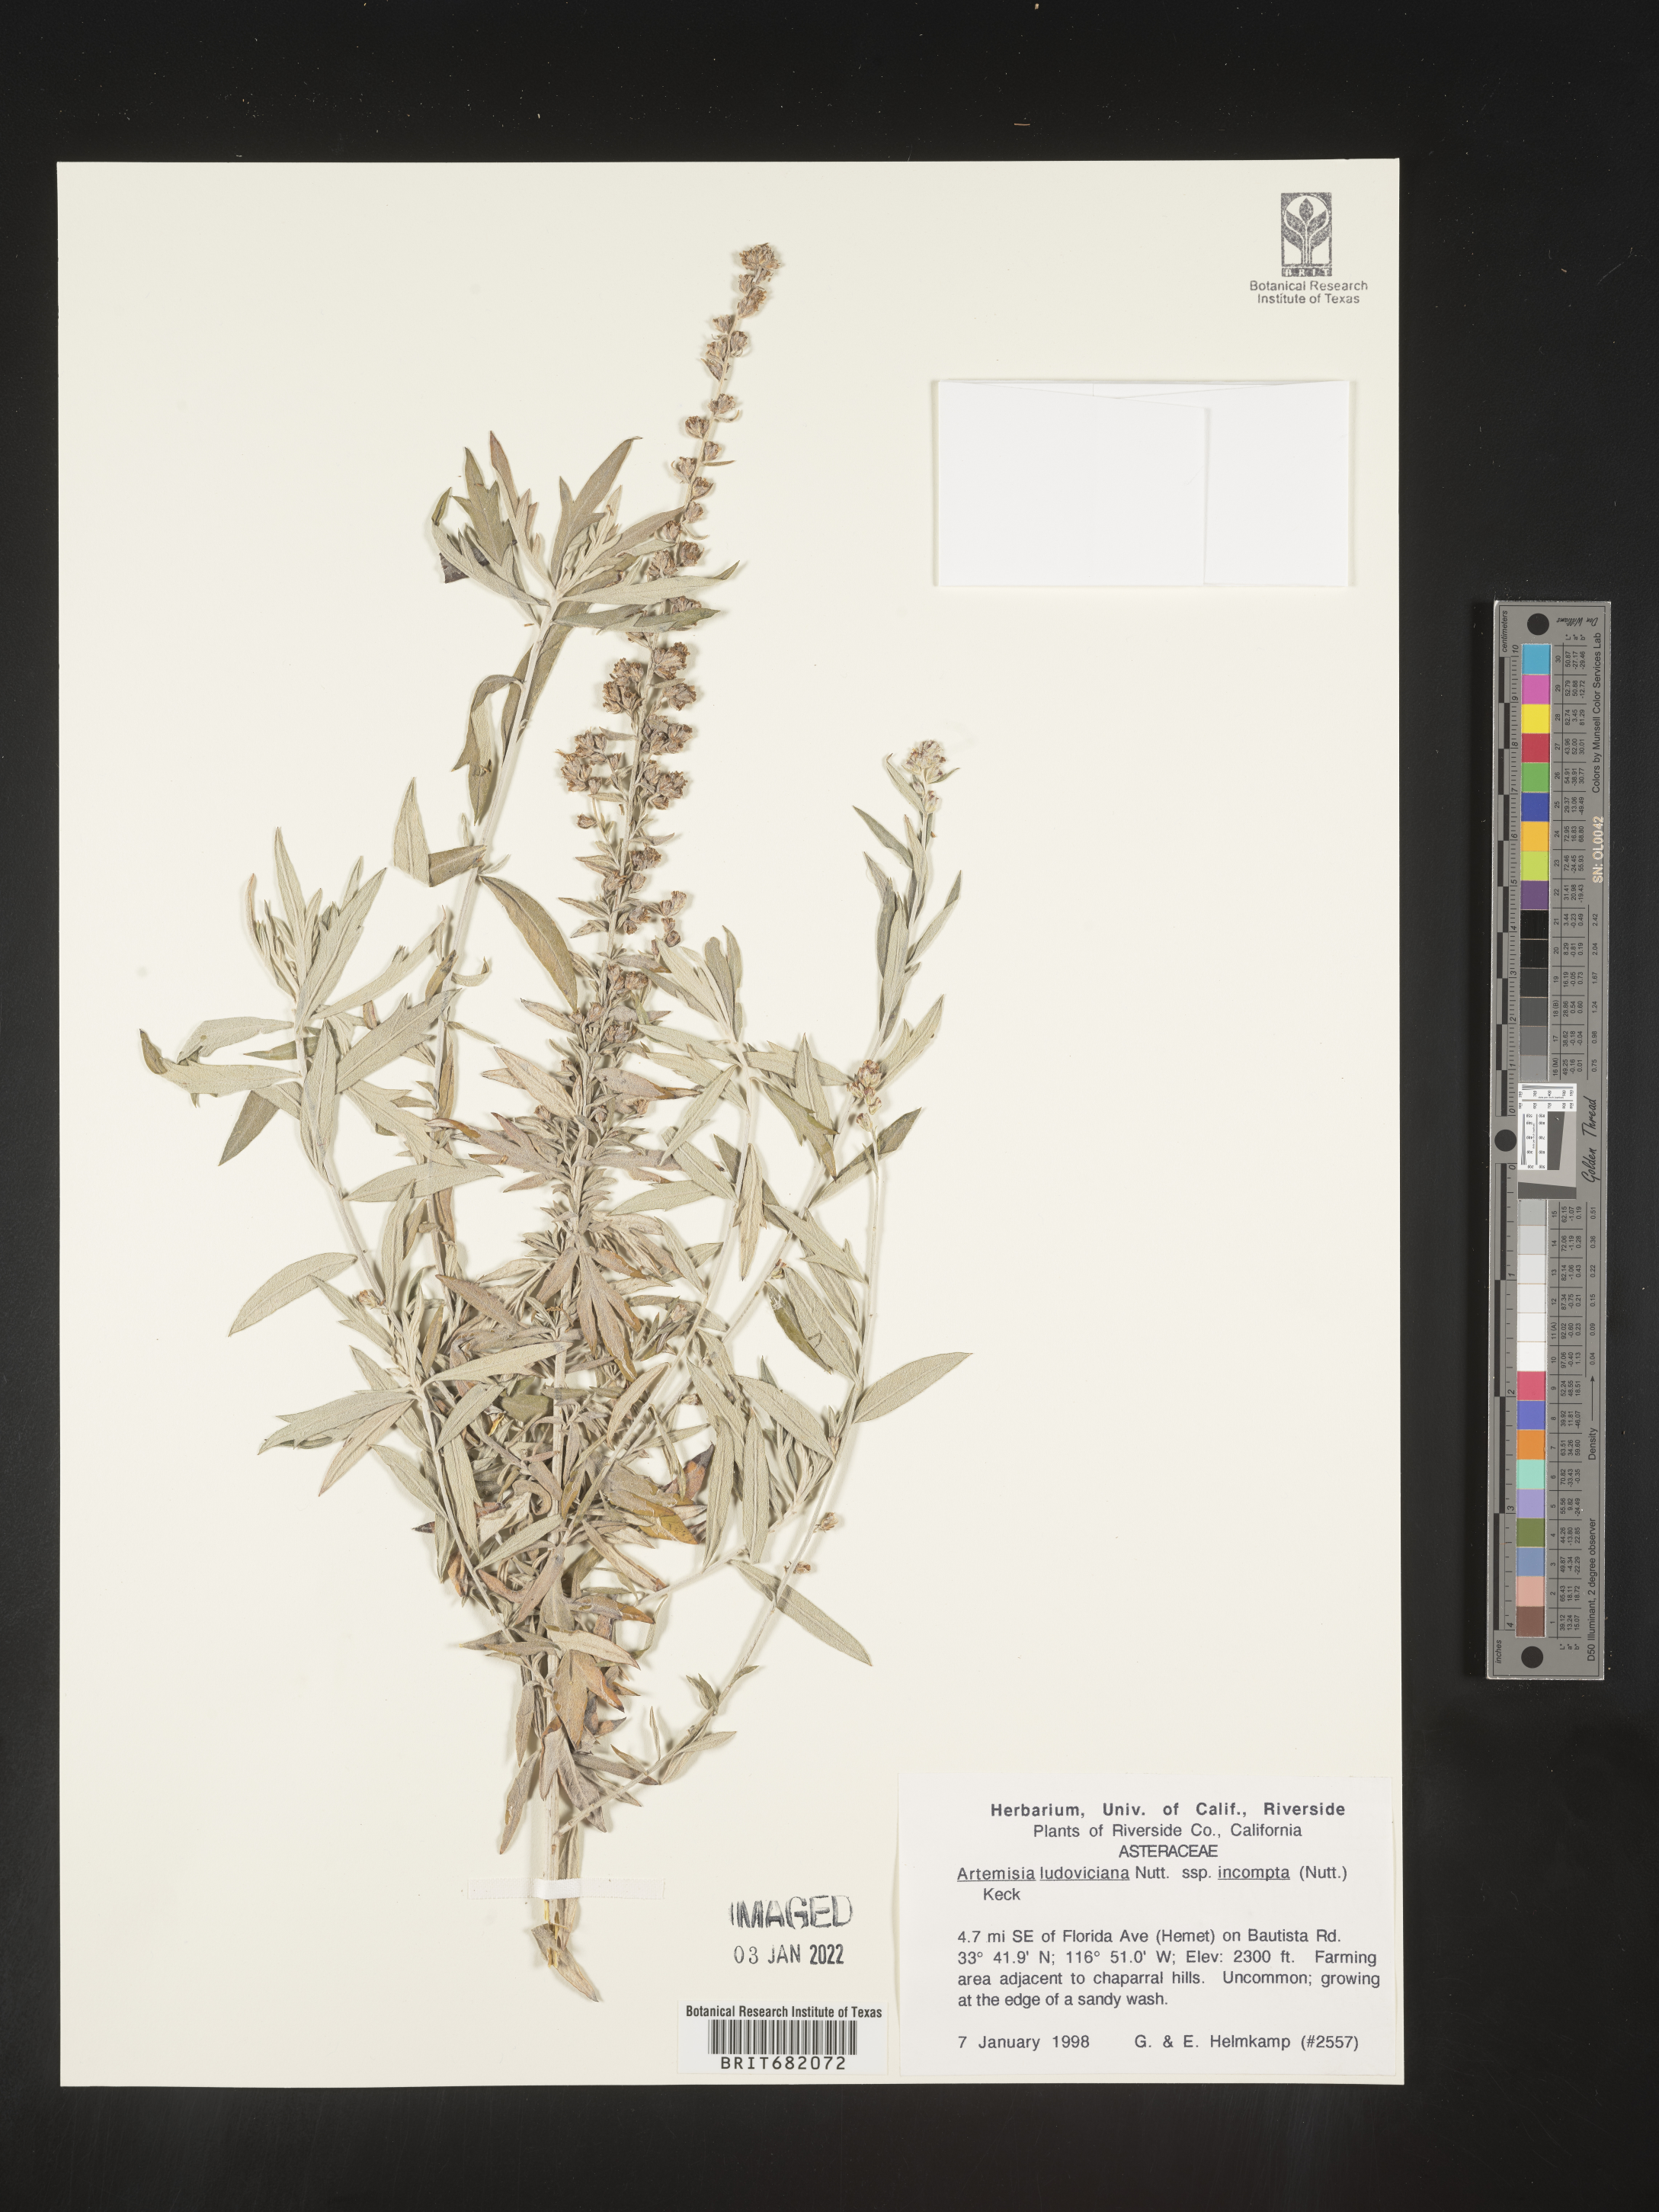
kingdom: Plantae
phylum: Tracheophyta
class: Magnoliopsida
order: Asterales
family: Asteraceae
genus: Artemisia
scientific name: Artemisia ludoviciana
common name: Western mugwort
